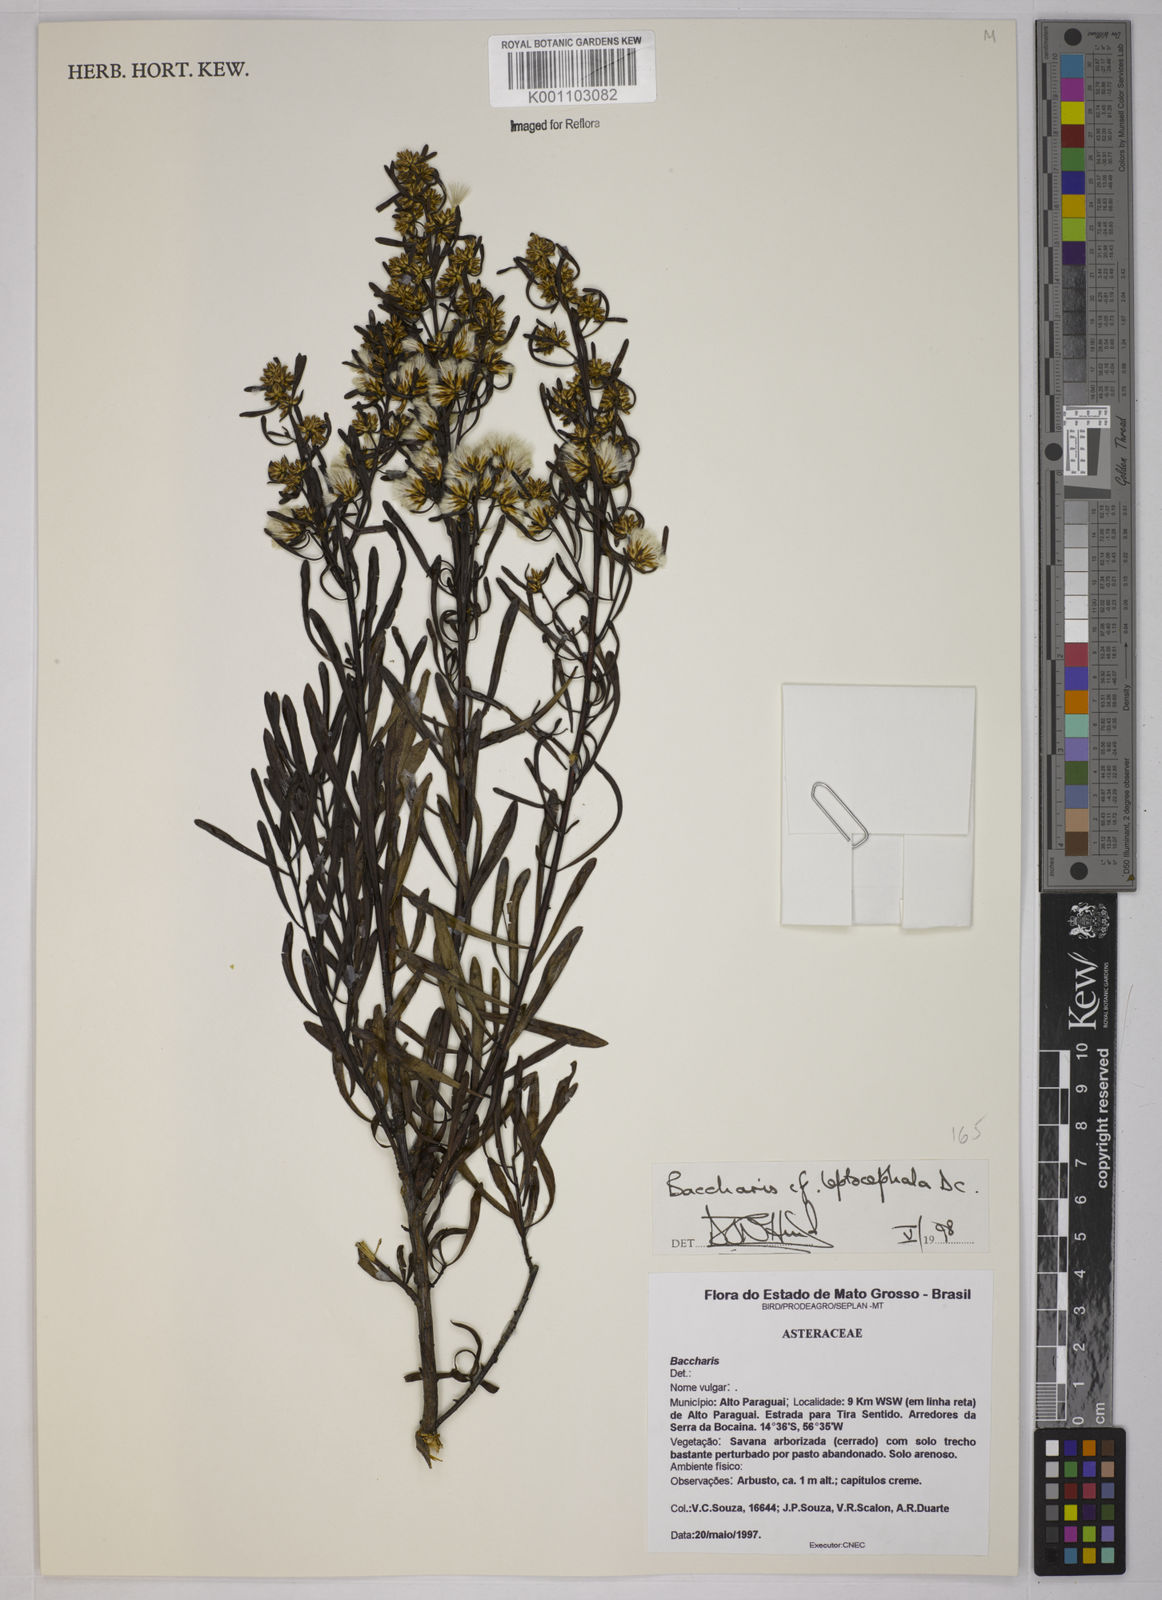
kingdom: Plantae
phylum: Tracheophyta
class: Magnoliopsida
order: Asterales
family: Asteraceae
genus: Baccharis
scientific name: Baccharis leptocephala
